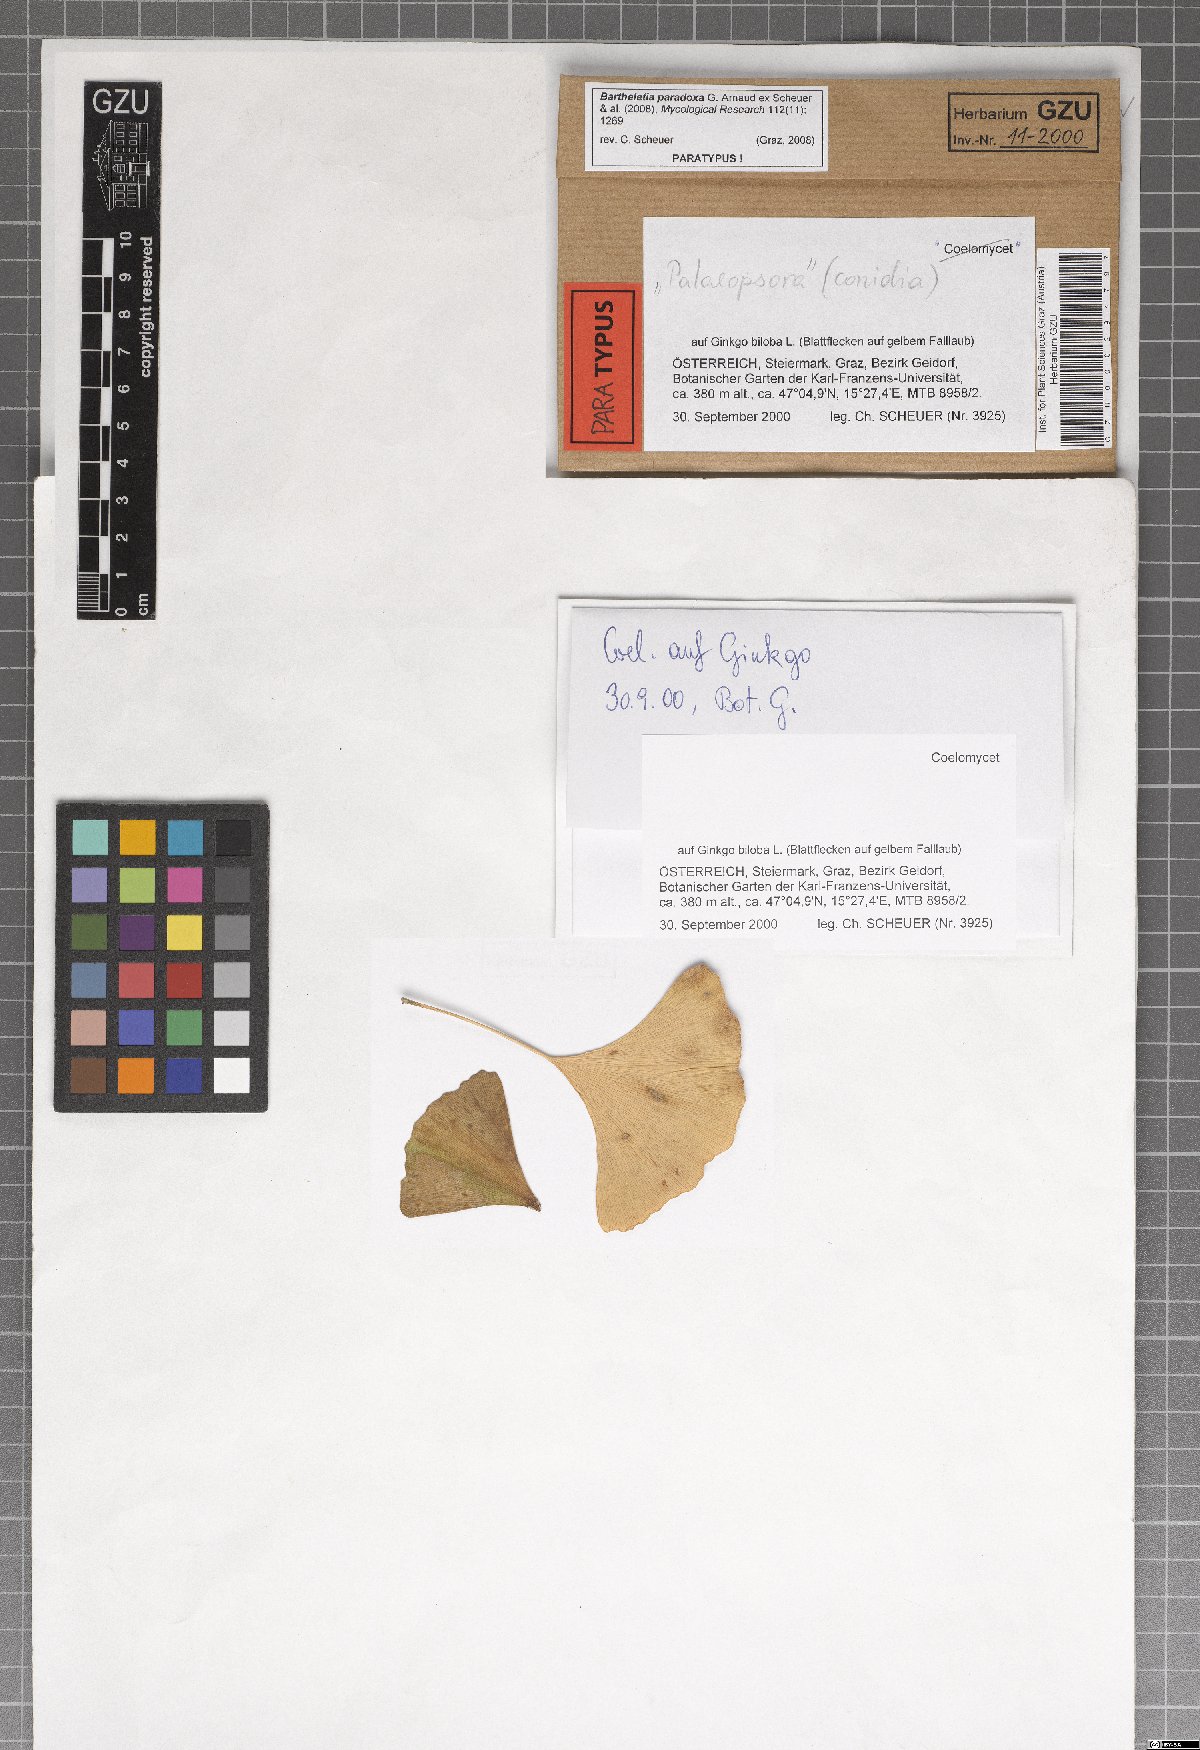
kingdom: Fungi
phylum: Basidiomycota
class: Wallemiomycetes
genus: Bartheletia
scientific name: Bartheletia paradoxa
